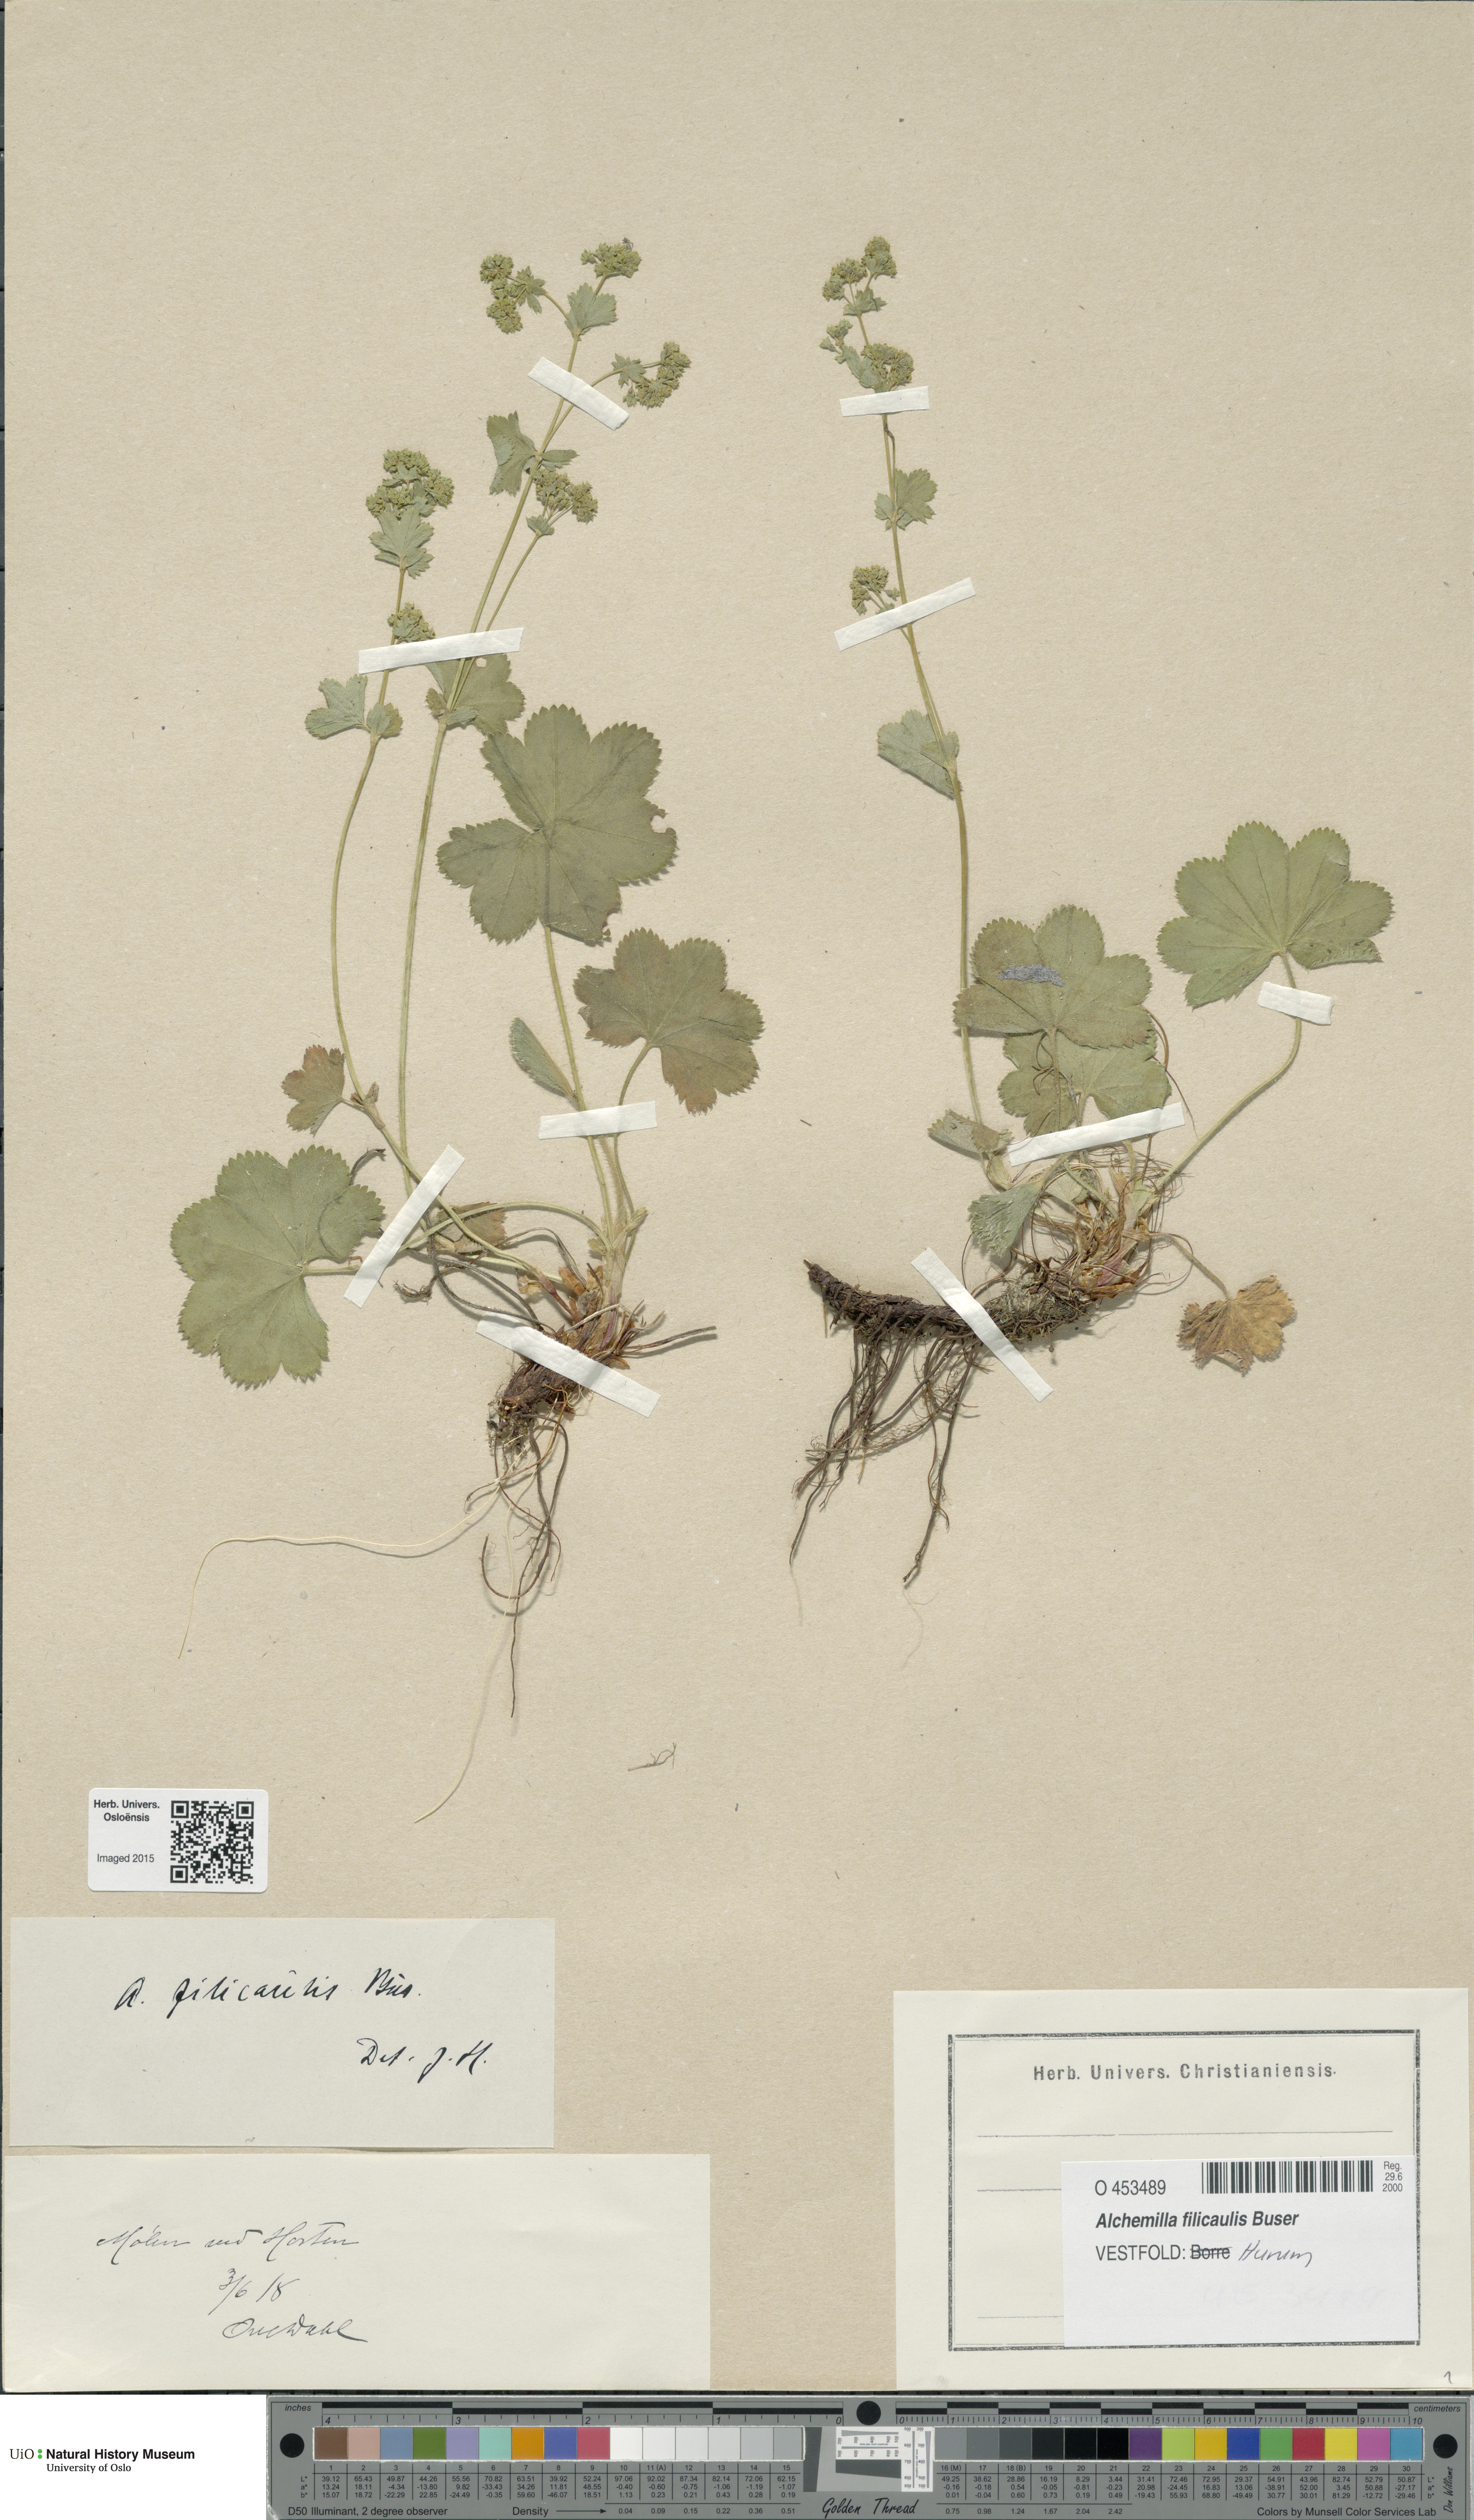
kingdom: Plantae
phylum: Tracheophyta
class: Magnoliopsida
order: Rosales
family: Rosaceae
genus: Alchemilla
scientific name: Alchemilla filicaulis
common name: Hairy lady's-mantle
